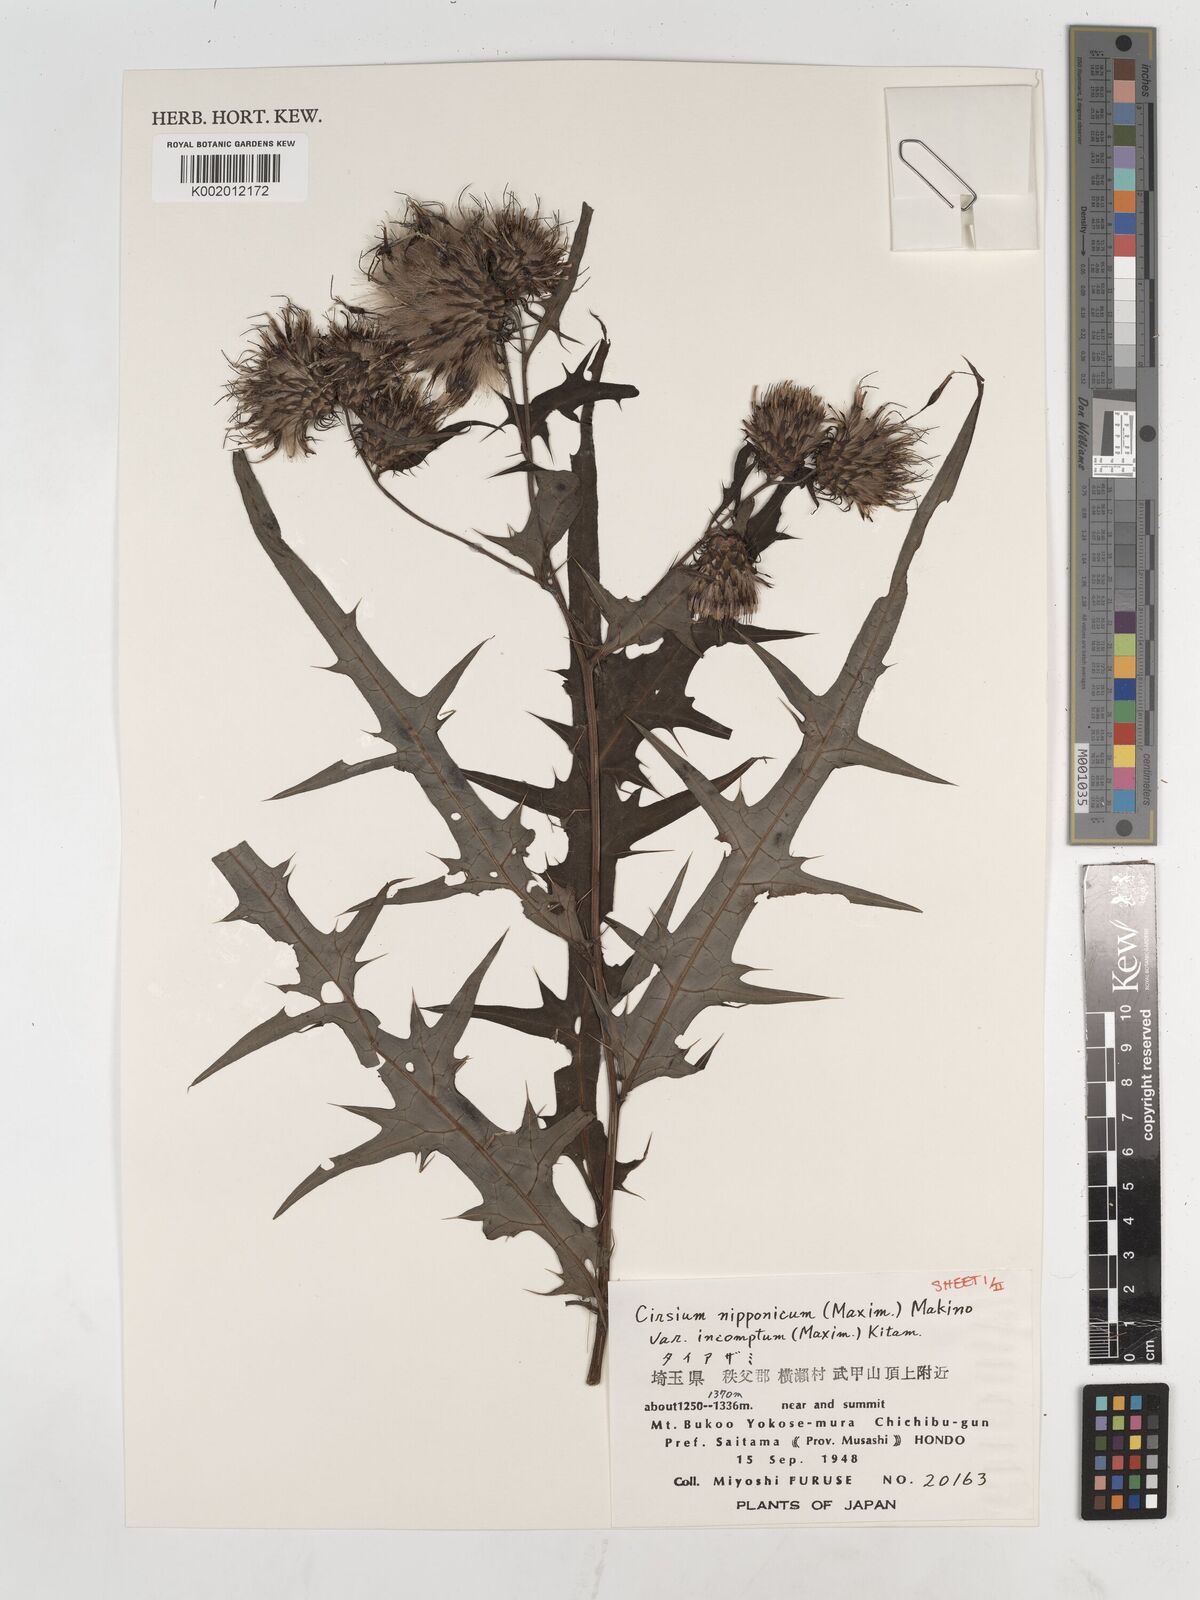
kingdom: Plantae
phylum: Tracheophyta
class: Magnoliopsida
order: Asterales
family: Asteraceae
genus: Cirsium
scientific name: Cirsium nipponicum
